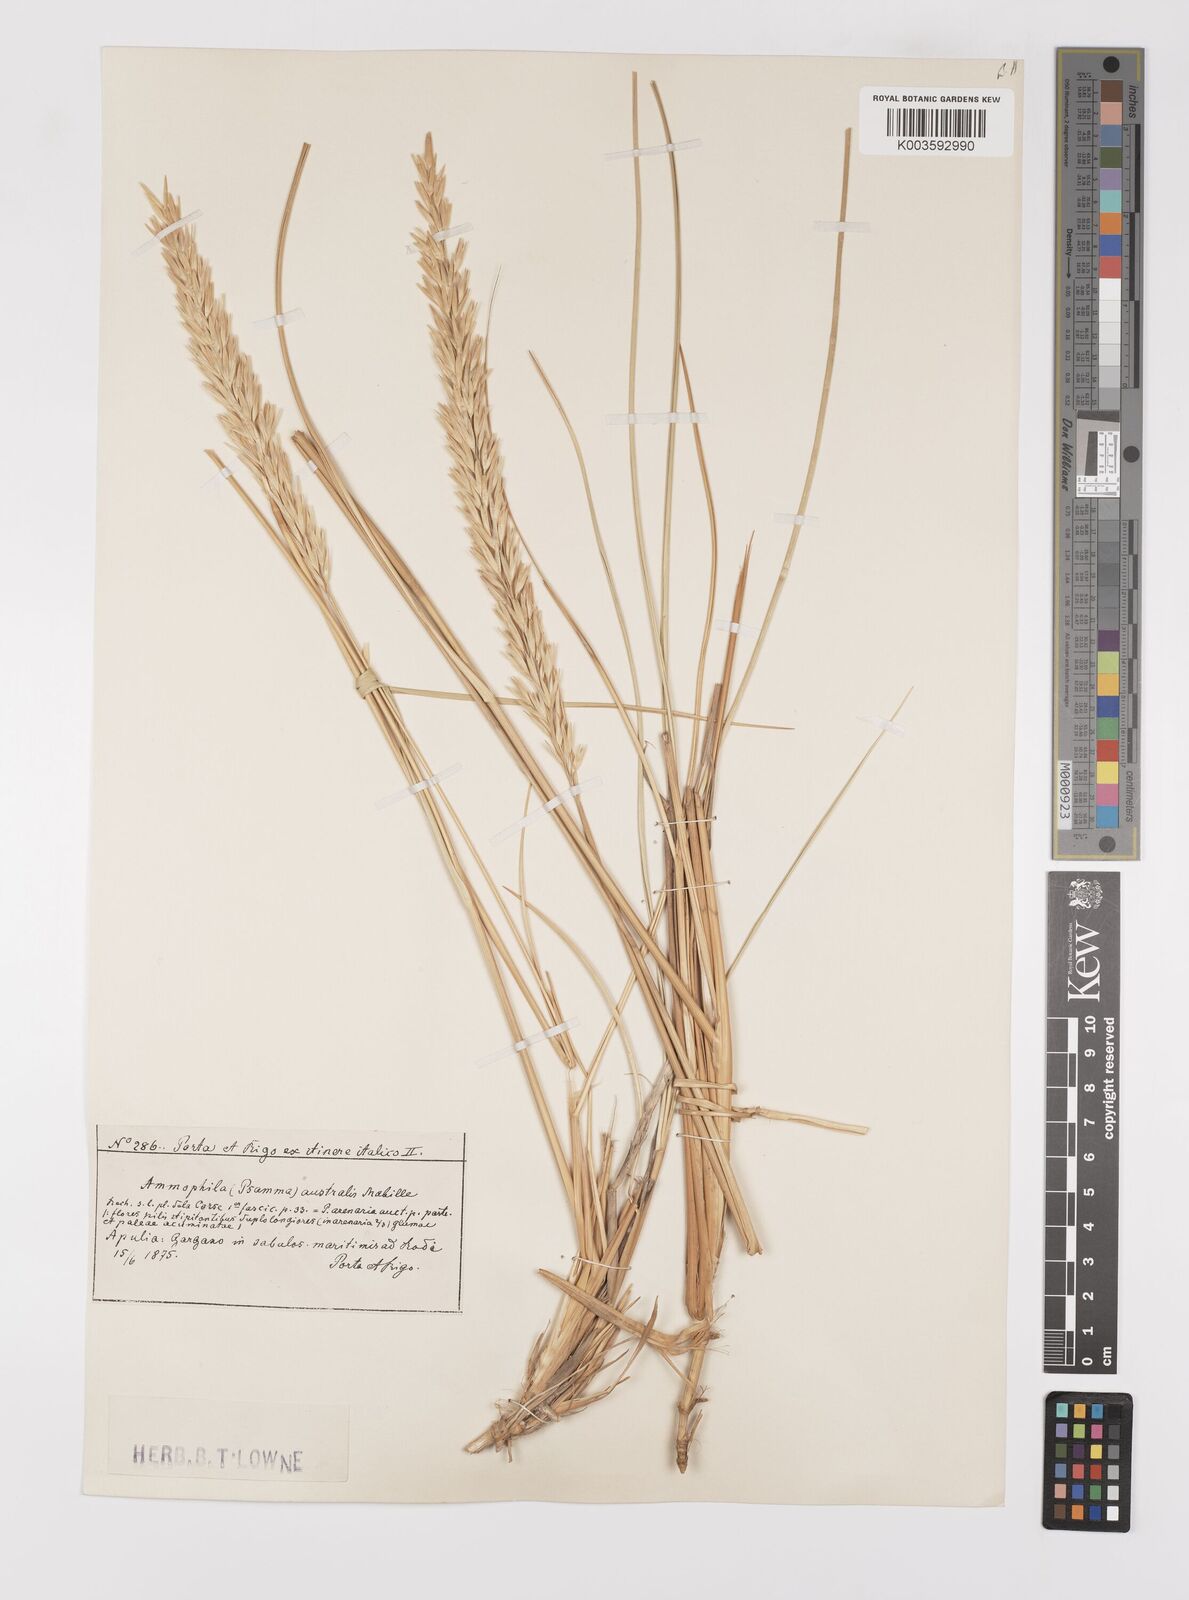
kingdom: Plantae
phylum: Tracheophyta
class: Liliopsida
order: Poales
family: Poaceae
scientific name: Poaceae
